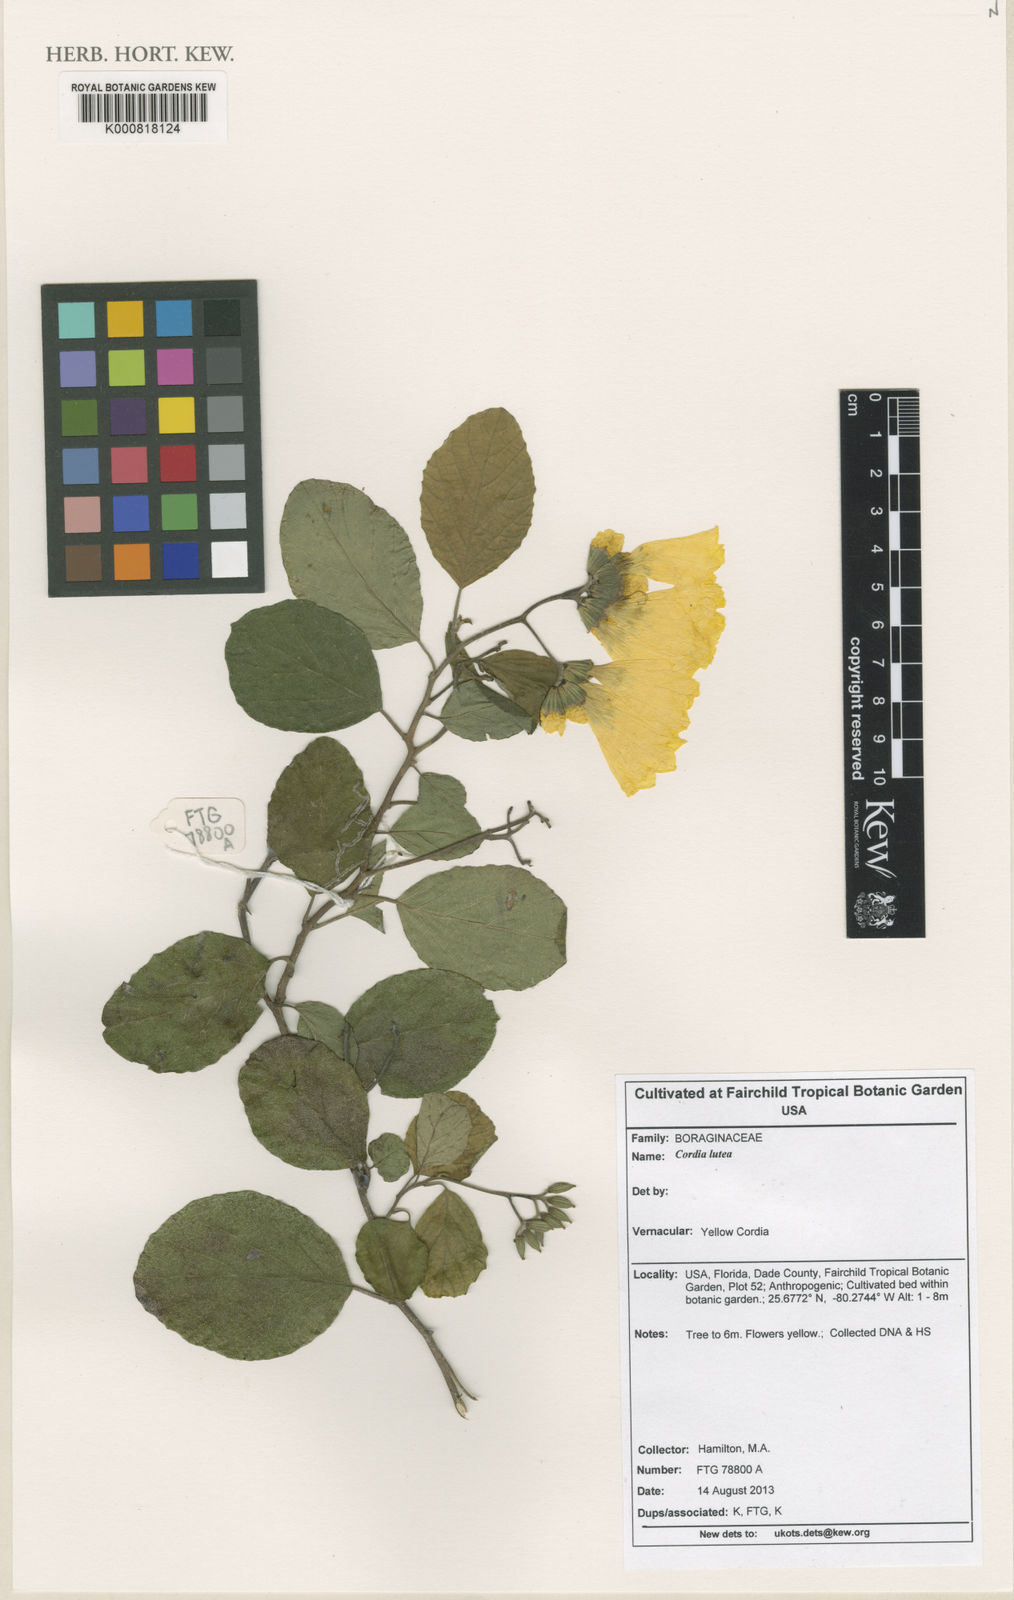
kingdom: Plantae
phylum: Tracheophyta
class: Magnoliopsida
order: Boraginales
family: Cordiaceae
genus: Cordia
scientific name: Cordia lutea
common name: Yellow geiger
